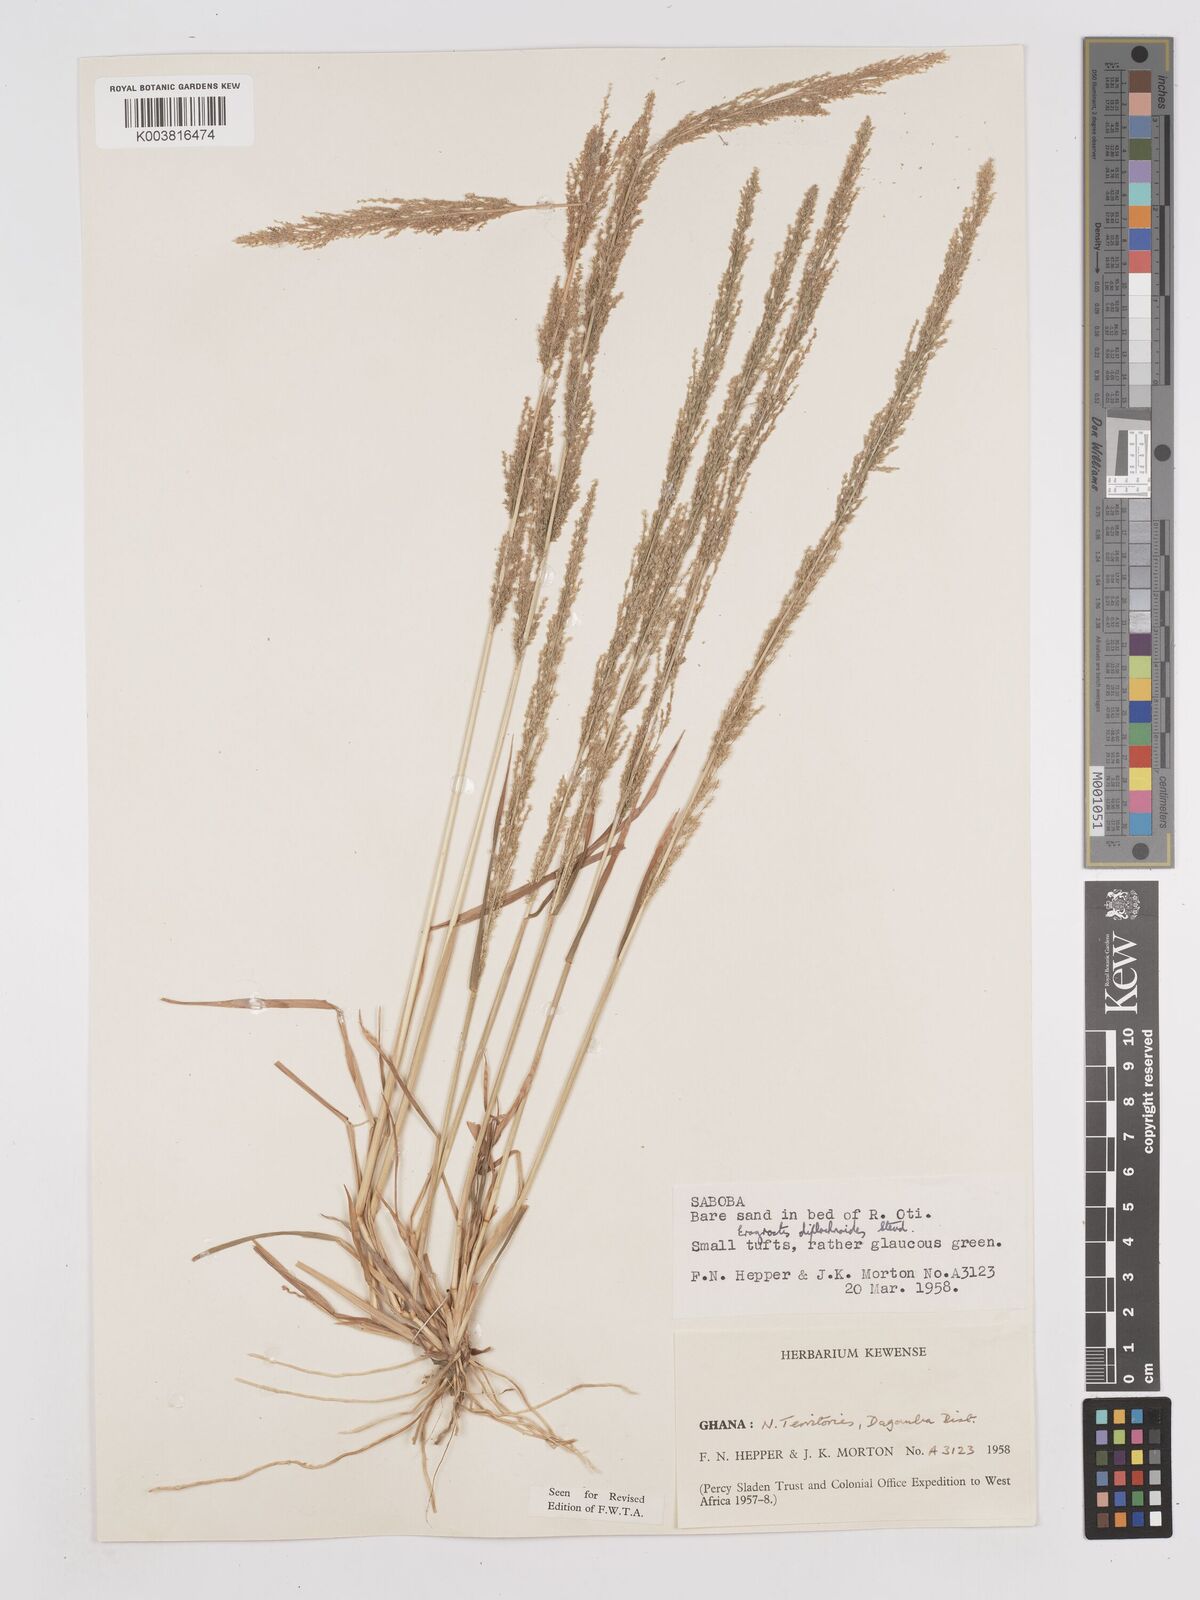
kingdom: Plantae
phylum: Tracheophyta
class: Liliopsida
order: Poales
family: Poaceae
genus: Eragrostis
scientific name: Eragrostis japonica
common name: Pond lovegrass
